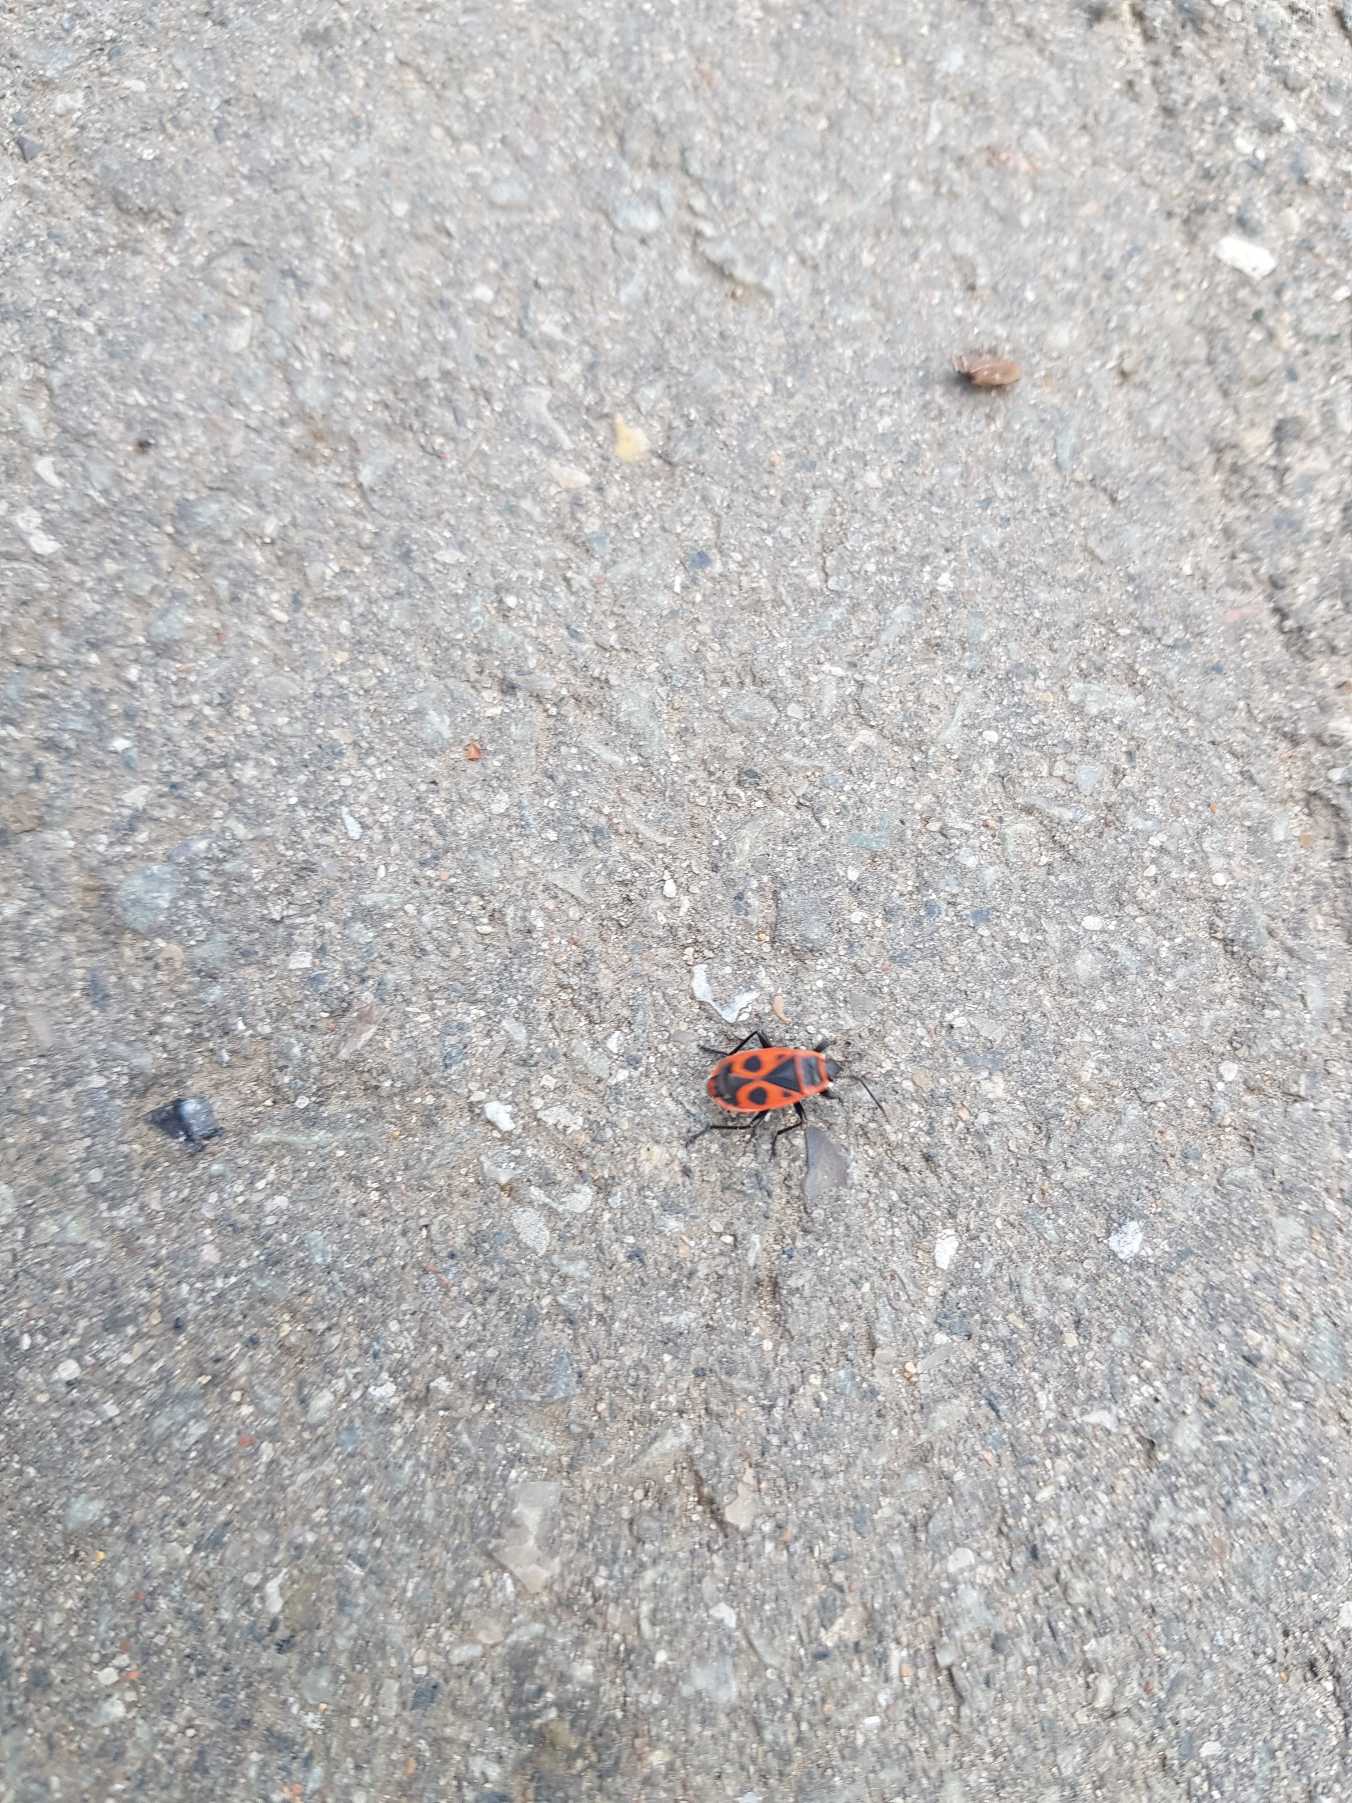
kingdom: Animalia
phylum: Arthropoda
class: Insecta
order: Hemiptera
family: Pyrrhocoridae
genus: Pyrrhocoris
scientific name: Pyrrhocoris apterus
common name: Ildtæge
